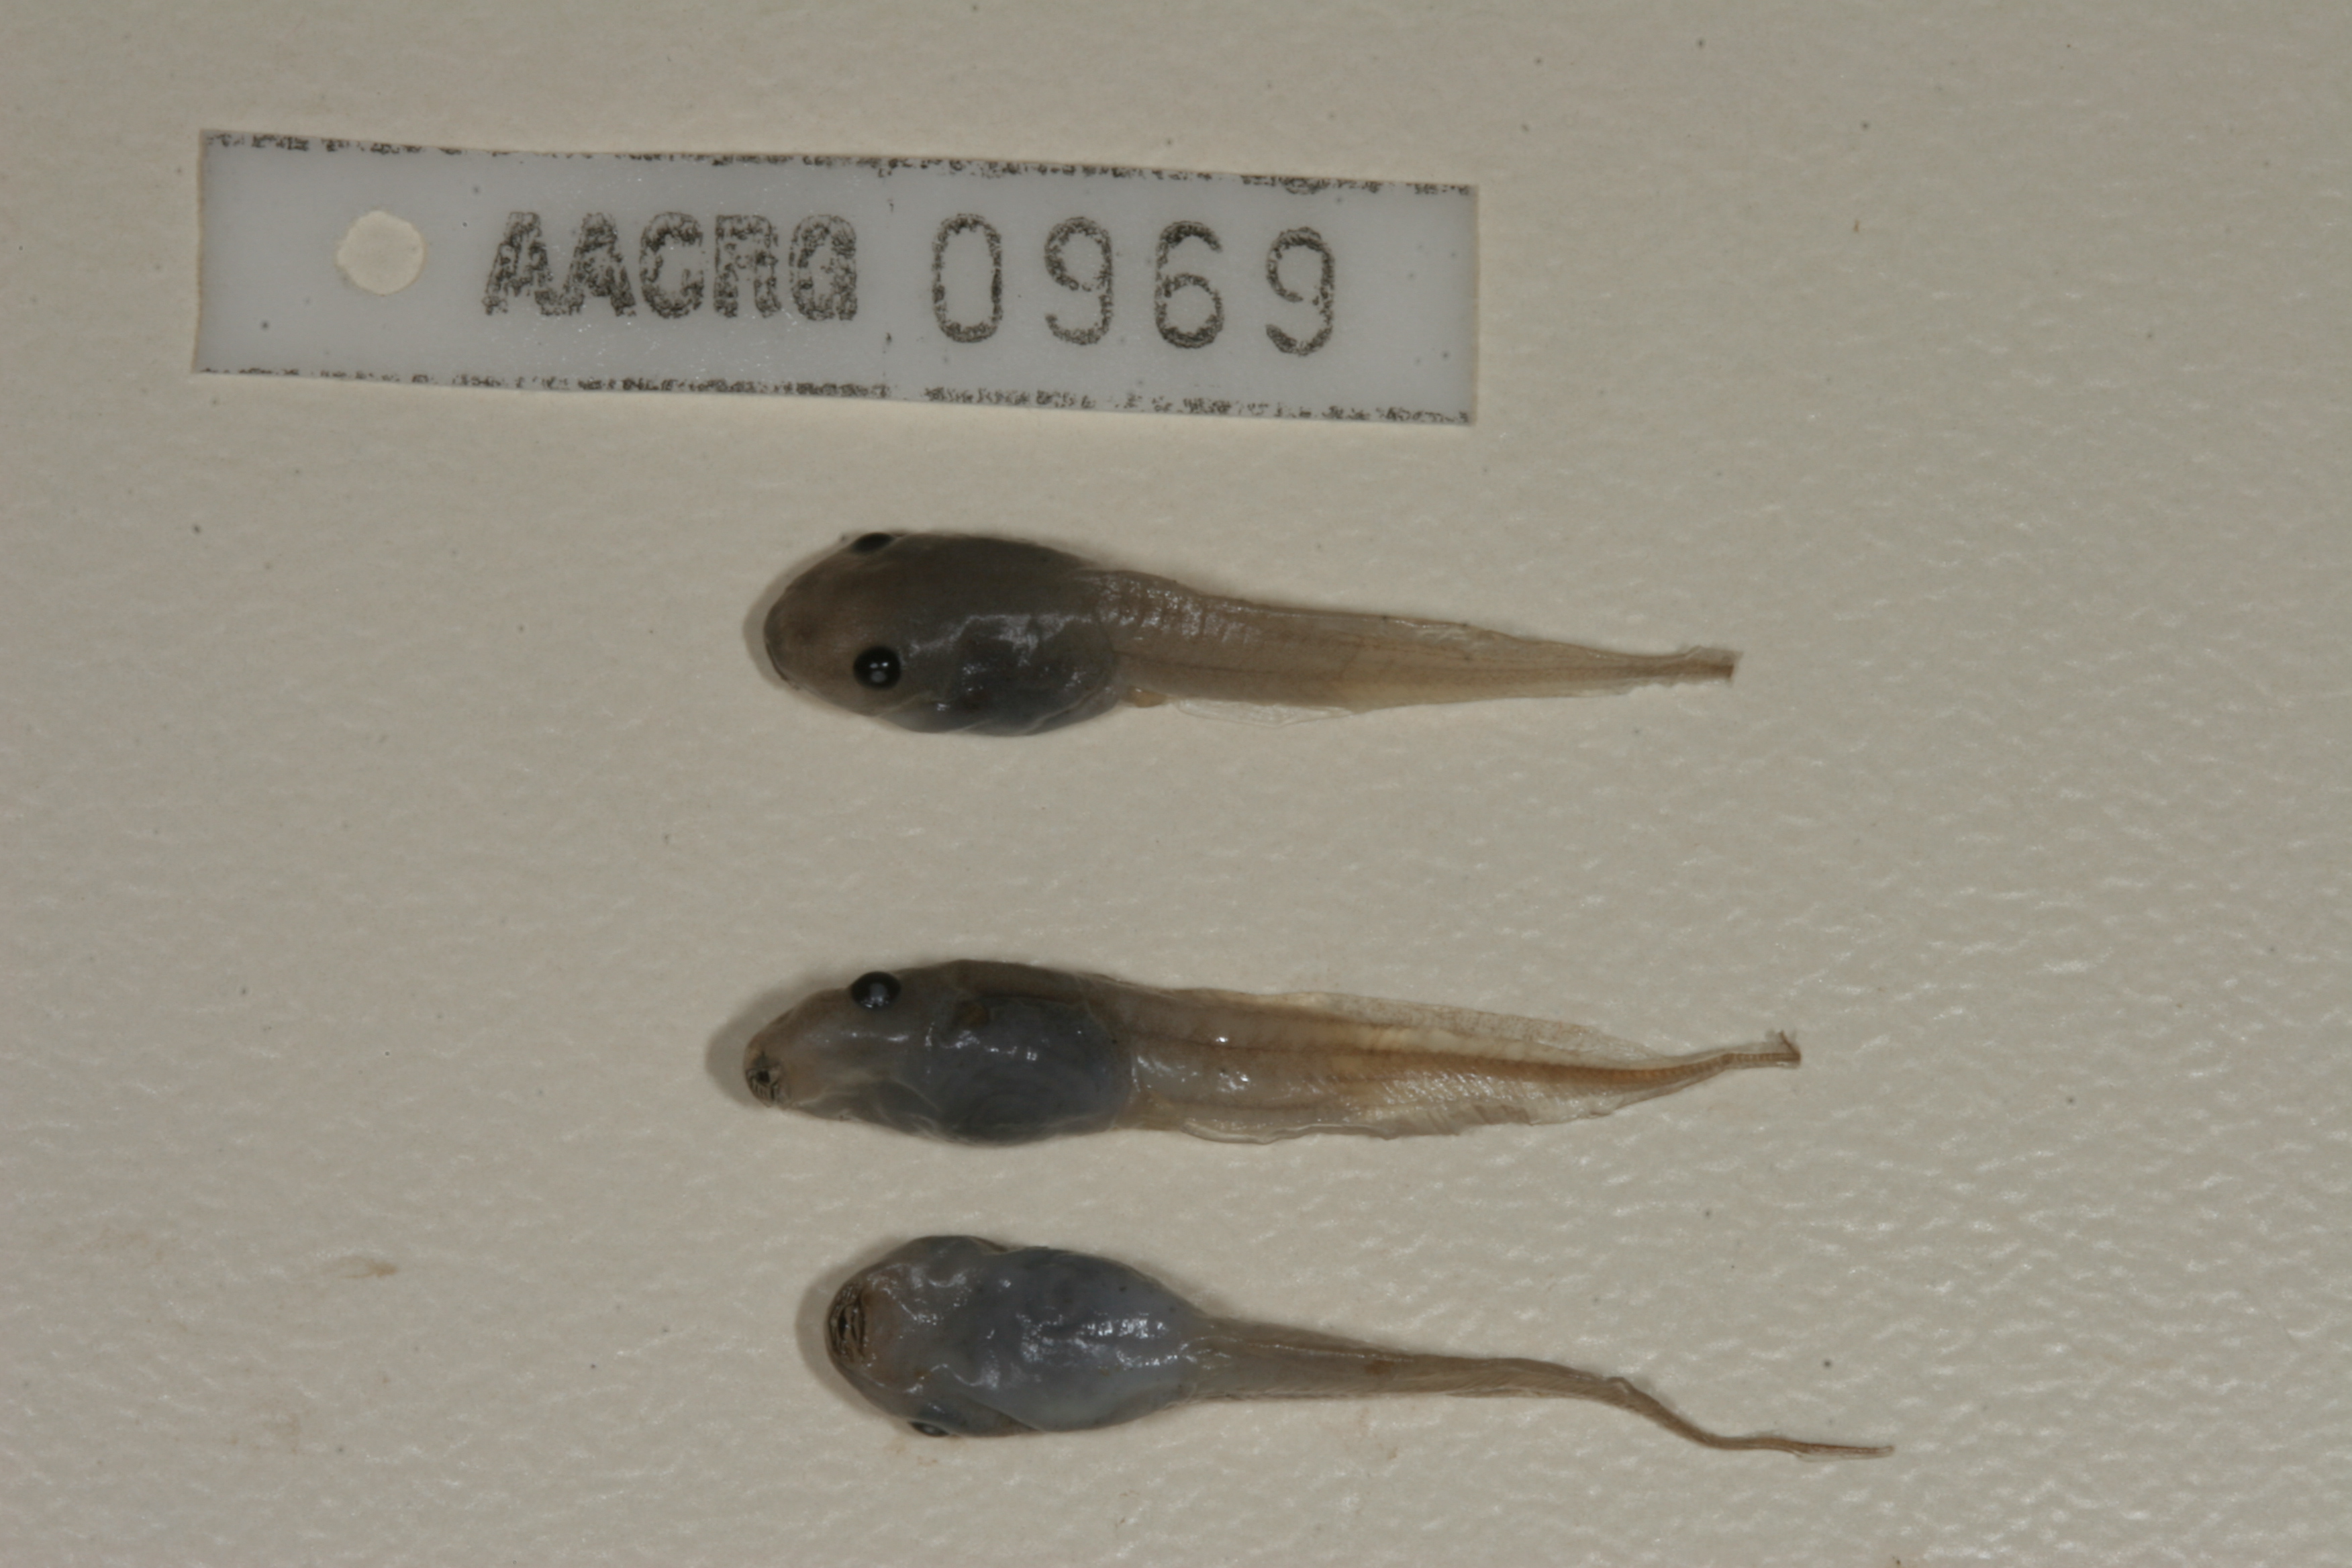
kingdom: Animalia
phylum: Chordata
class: Amphibia
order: Anura
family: Hemisotidae
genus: Hemisus
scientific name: Hemisus marmoratus
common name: Mottled shovel-nosed frog
